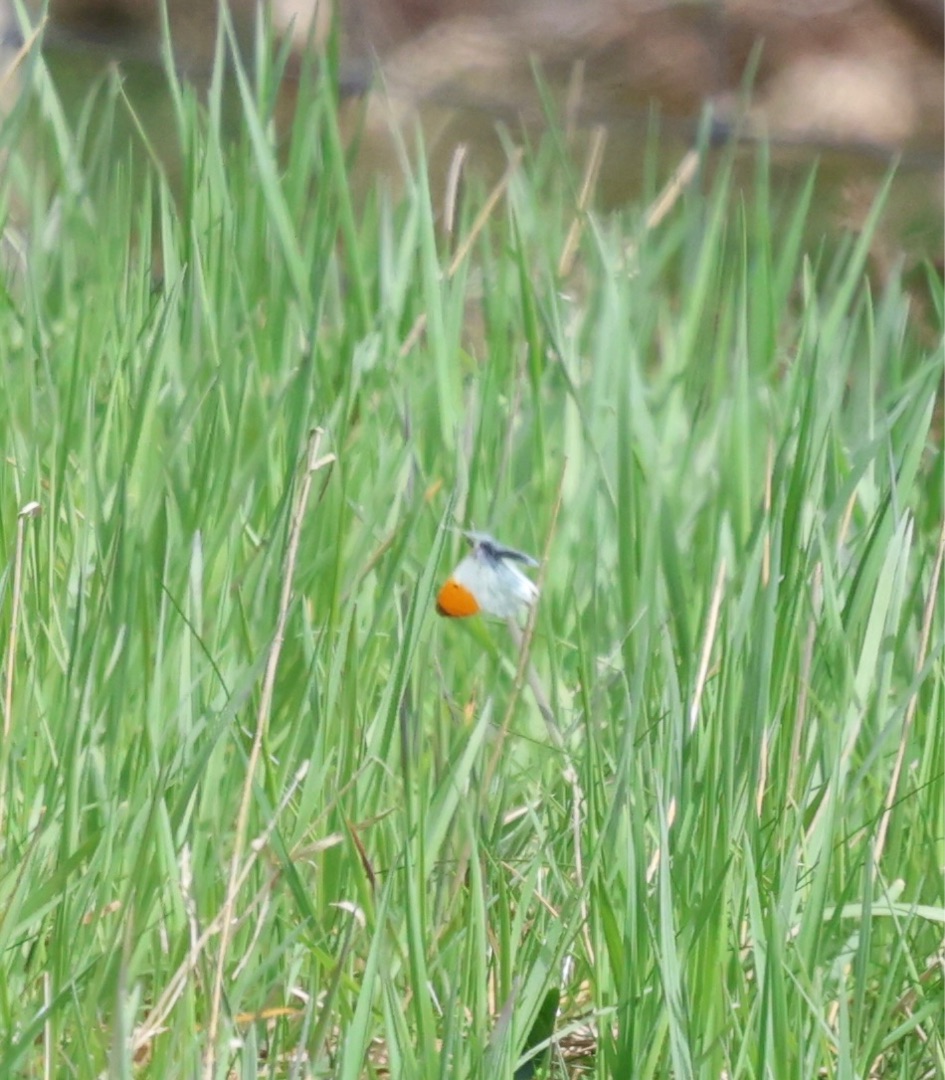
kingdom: Animalia
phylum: Arthropoda
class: Insecta
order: Lepidoptera
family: Pieridae
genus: Anthocharis
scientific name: Anthocharis cardamines
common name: Aurora
